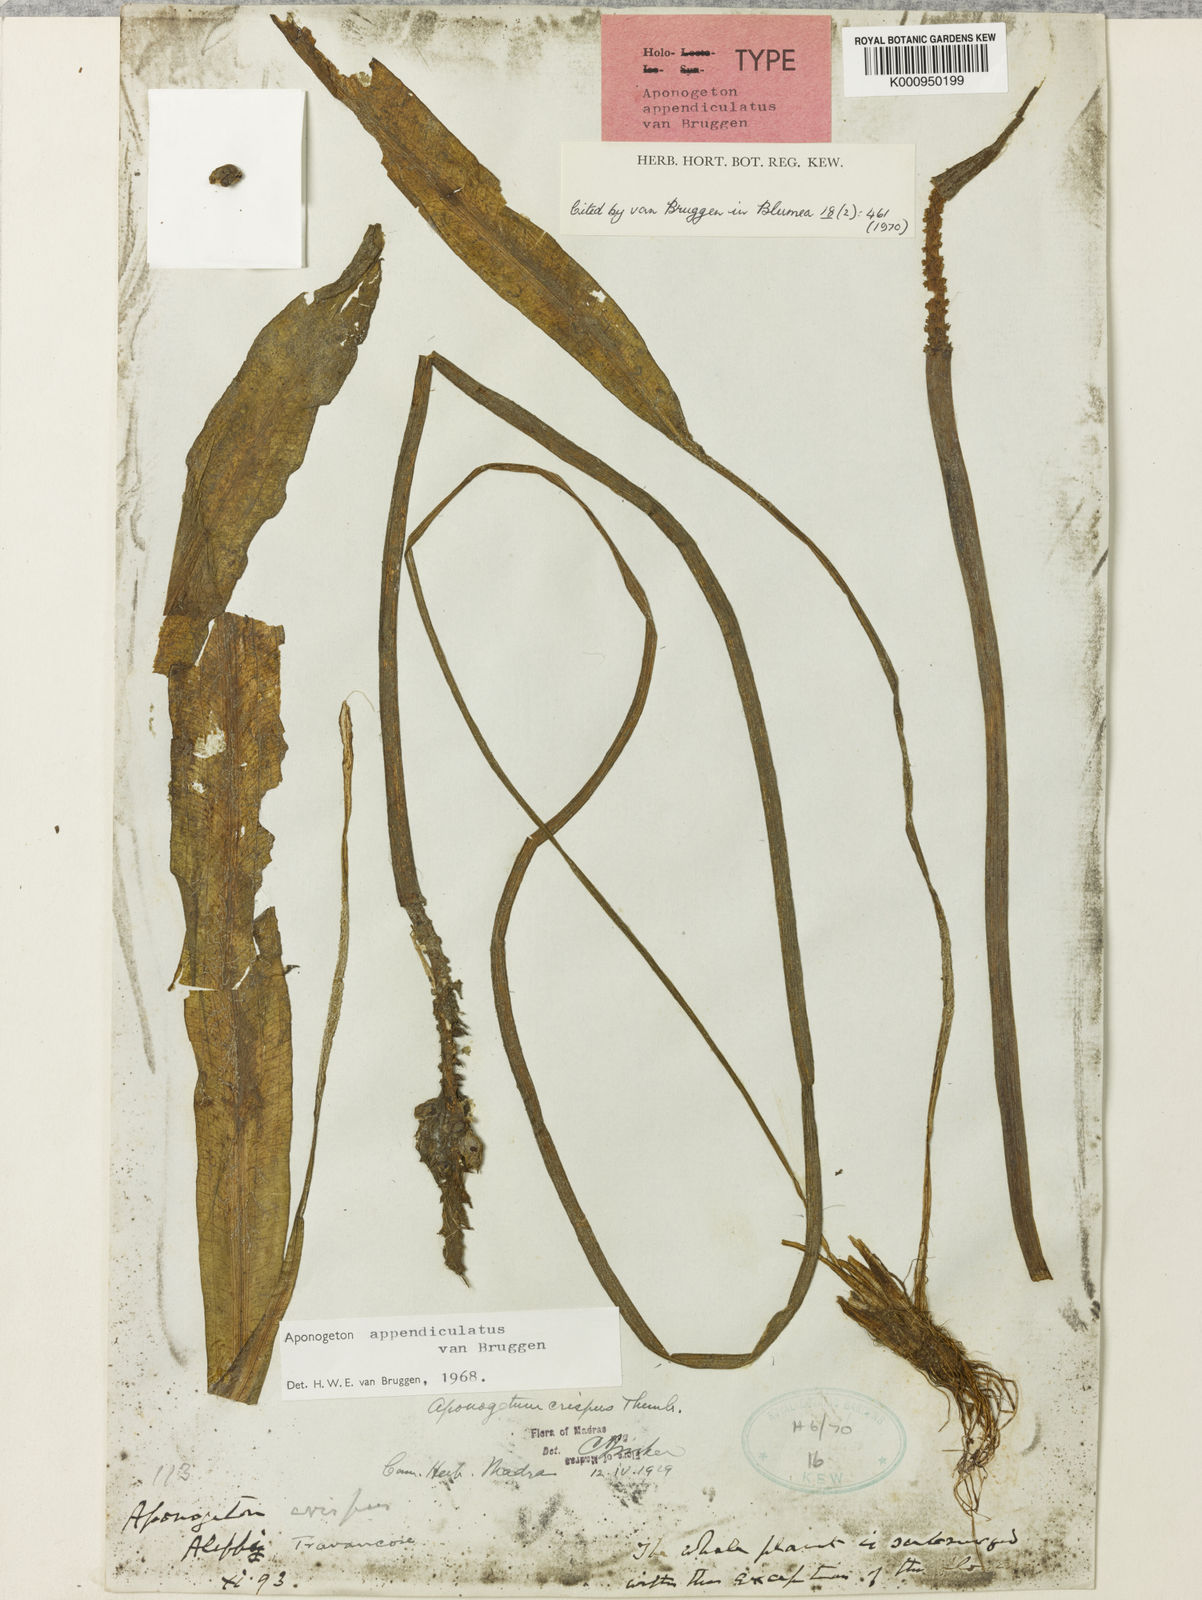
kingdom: Plantae
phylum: Tracheophyta
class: Liliopsida
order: Alismatales
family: Aponogetonaceae
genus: Aponogeton
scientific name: Aponogeton appendiculatus
